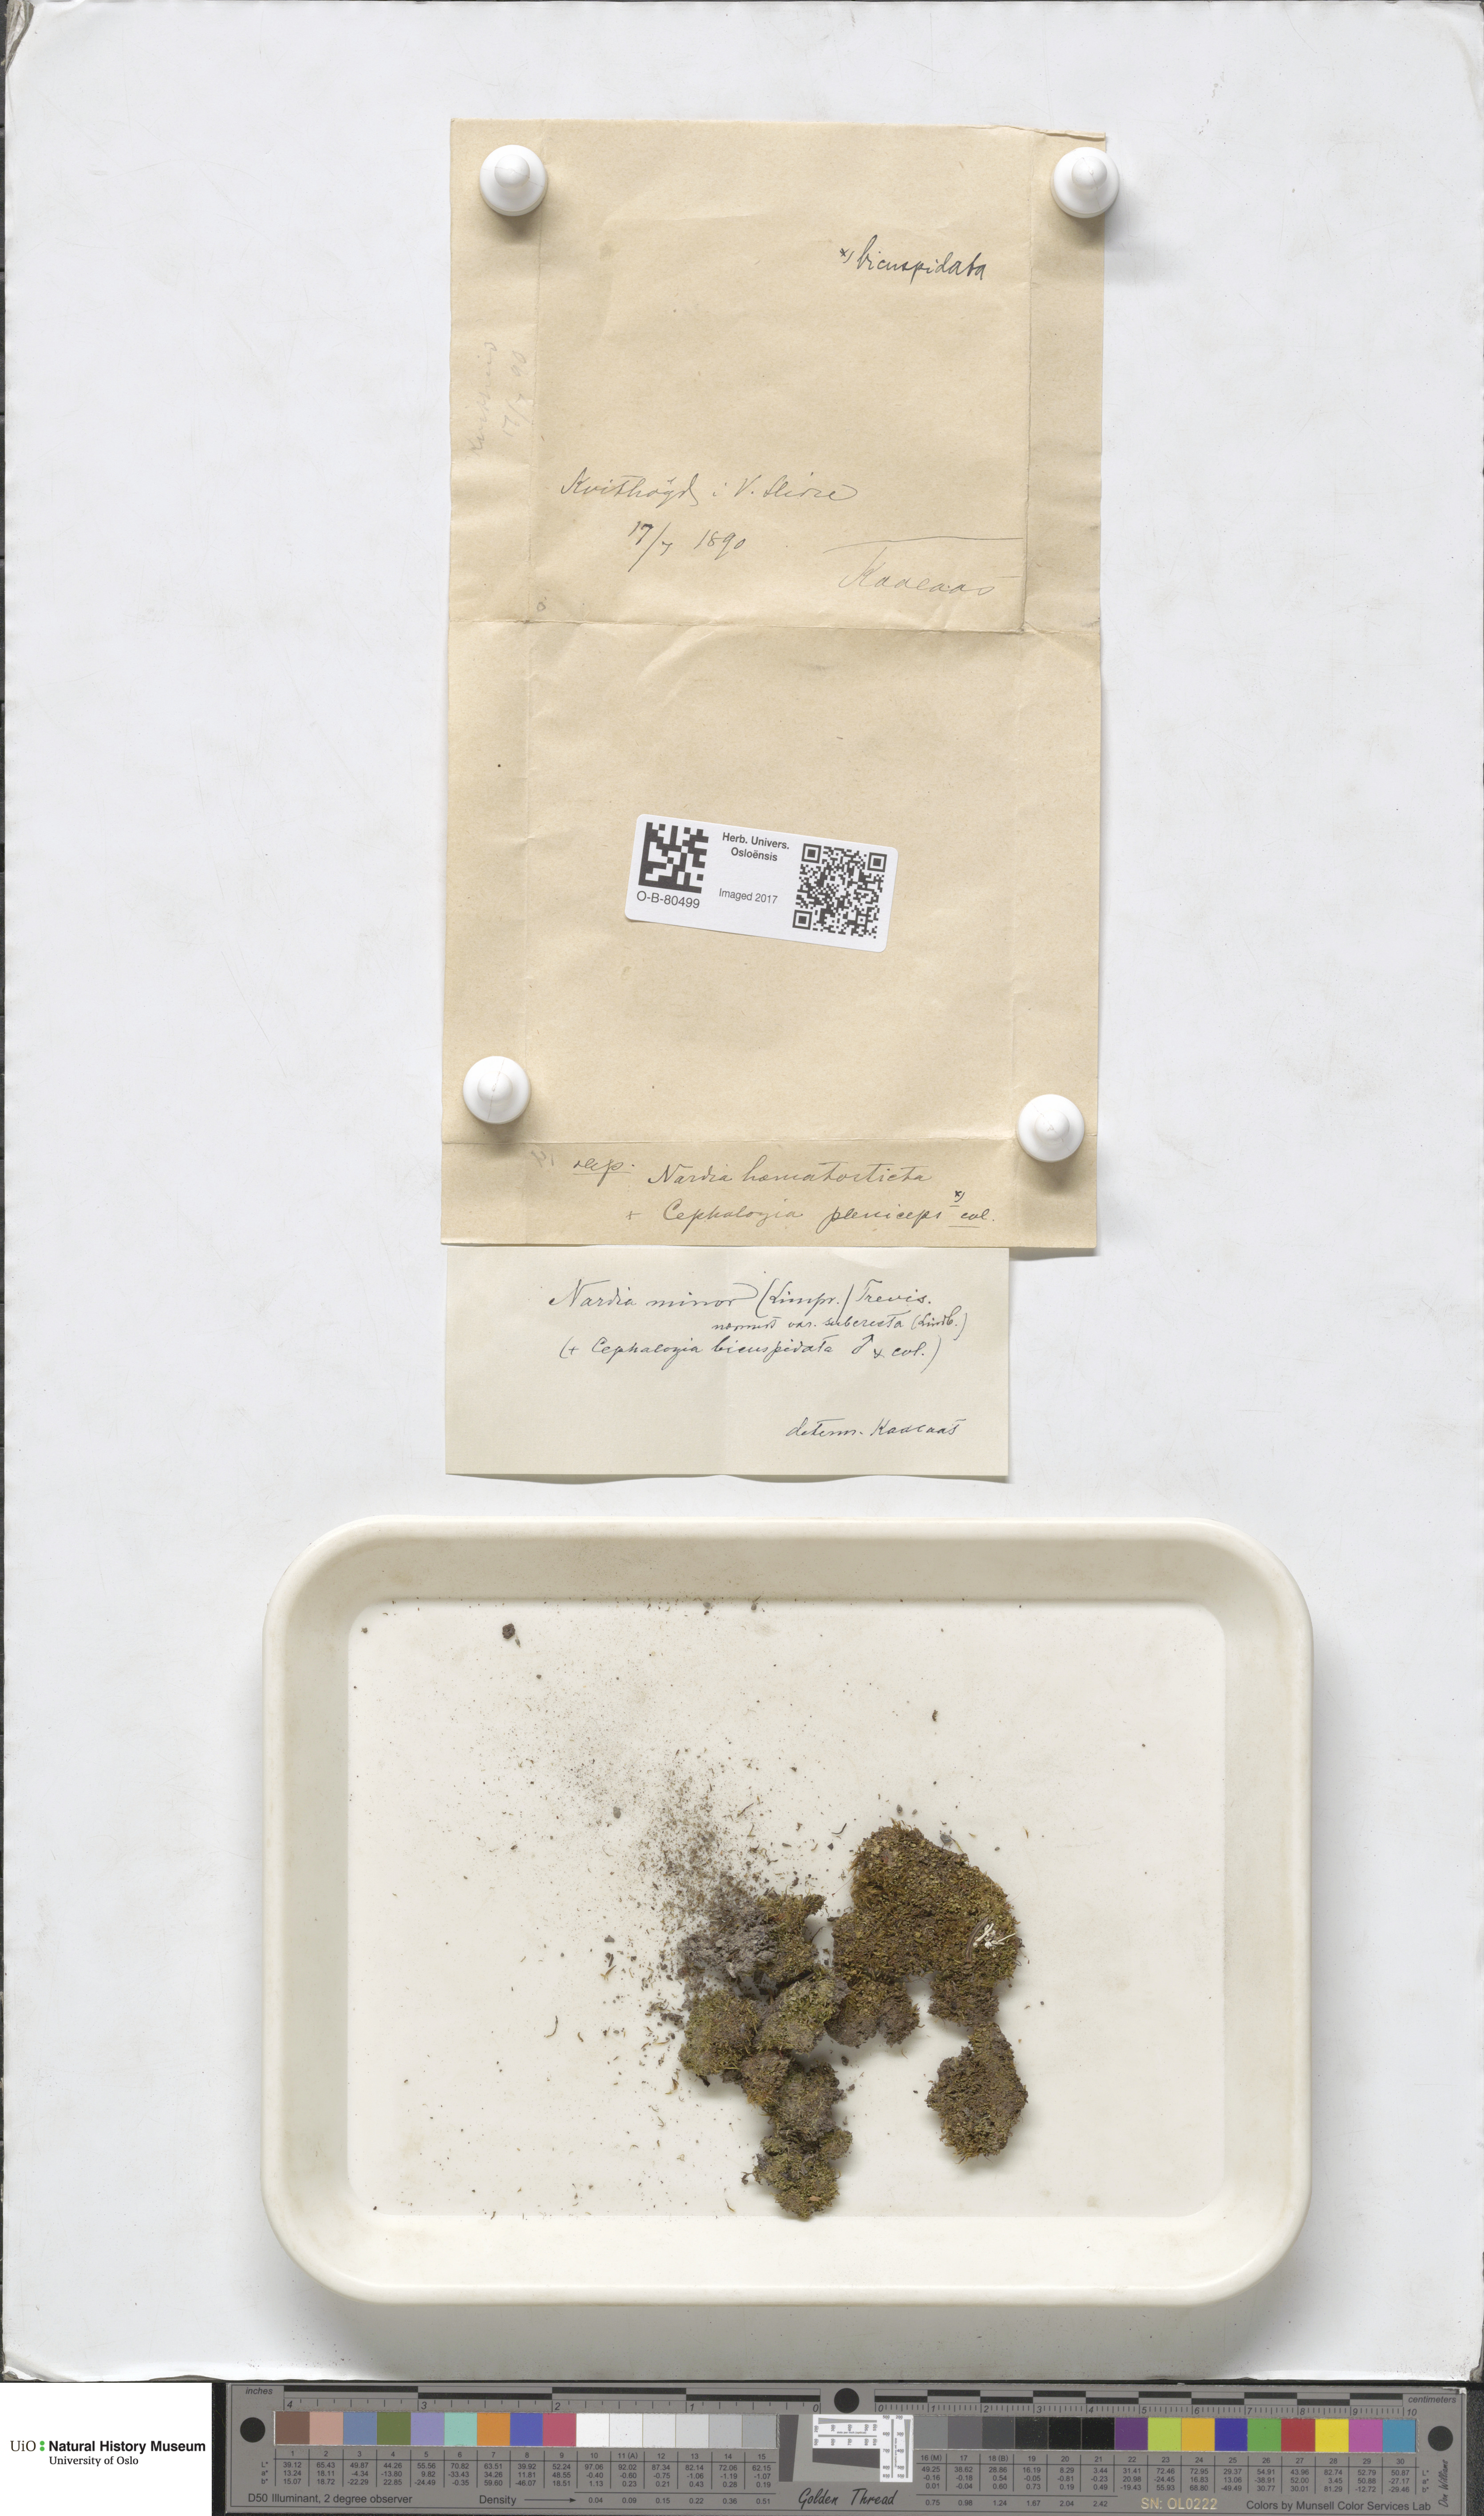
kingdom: Plantae
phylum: Marchantiophyta
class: Jungermanniopsida
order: Jungermanniales
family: Gymnomitriaceae
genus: Nardia
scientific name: Nardia geoscyphus
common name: Earth-cup flapwort
